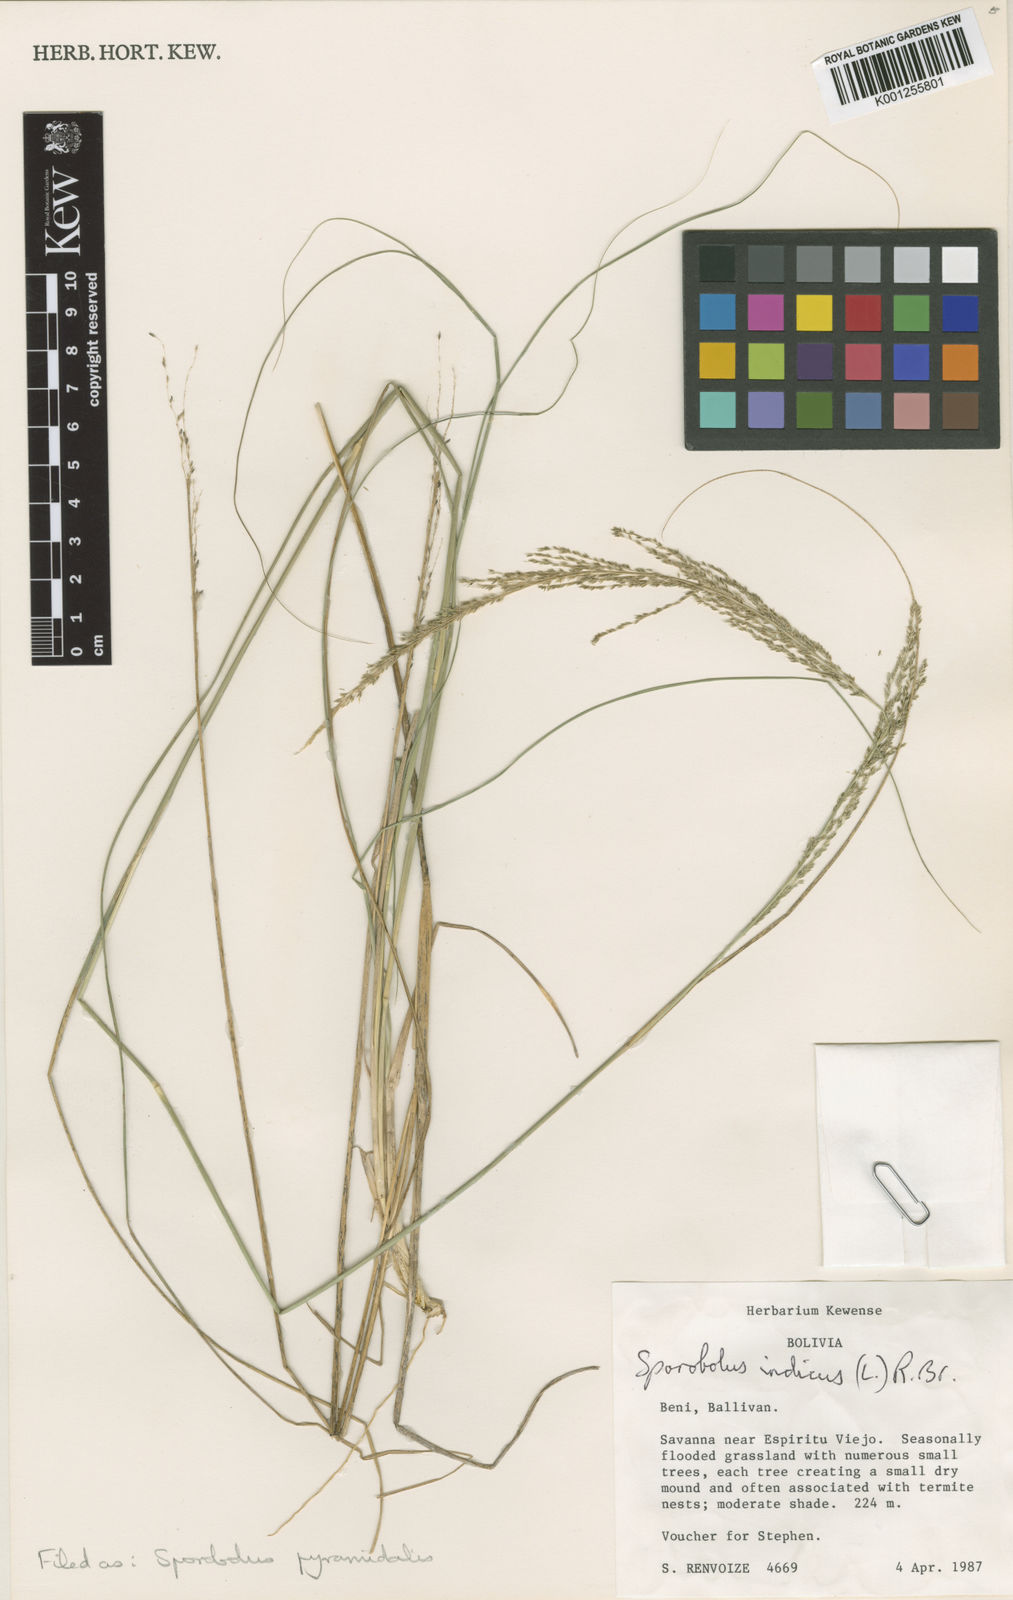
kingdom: Plantae
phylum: Tracheophyta
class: Liliopsida
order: Poales
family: Poaceae
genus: Sporobolus
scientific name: Sporobolus pyramidalis
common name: West indian dropseed
